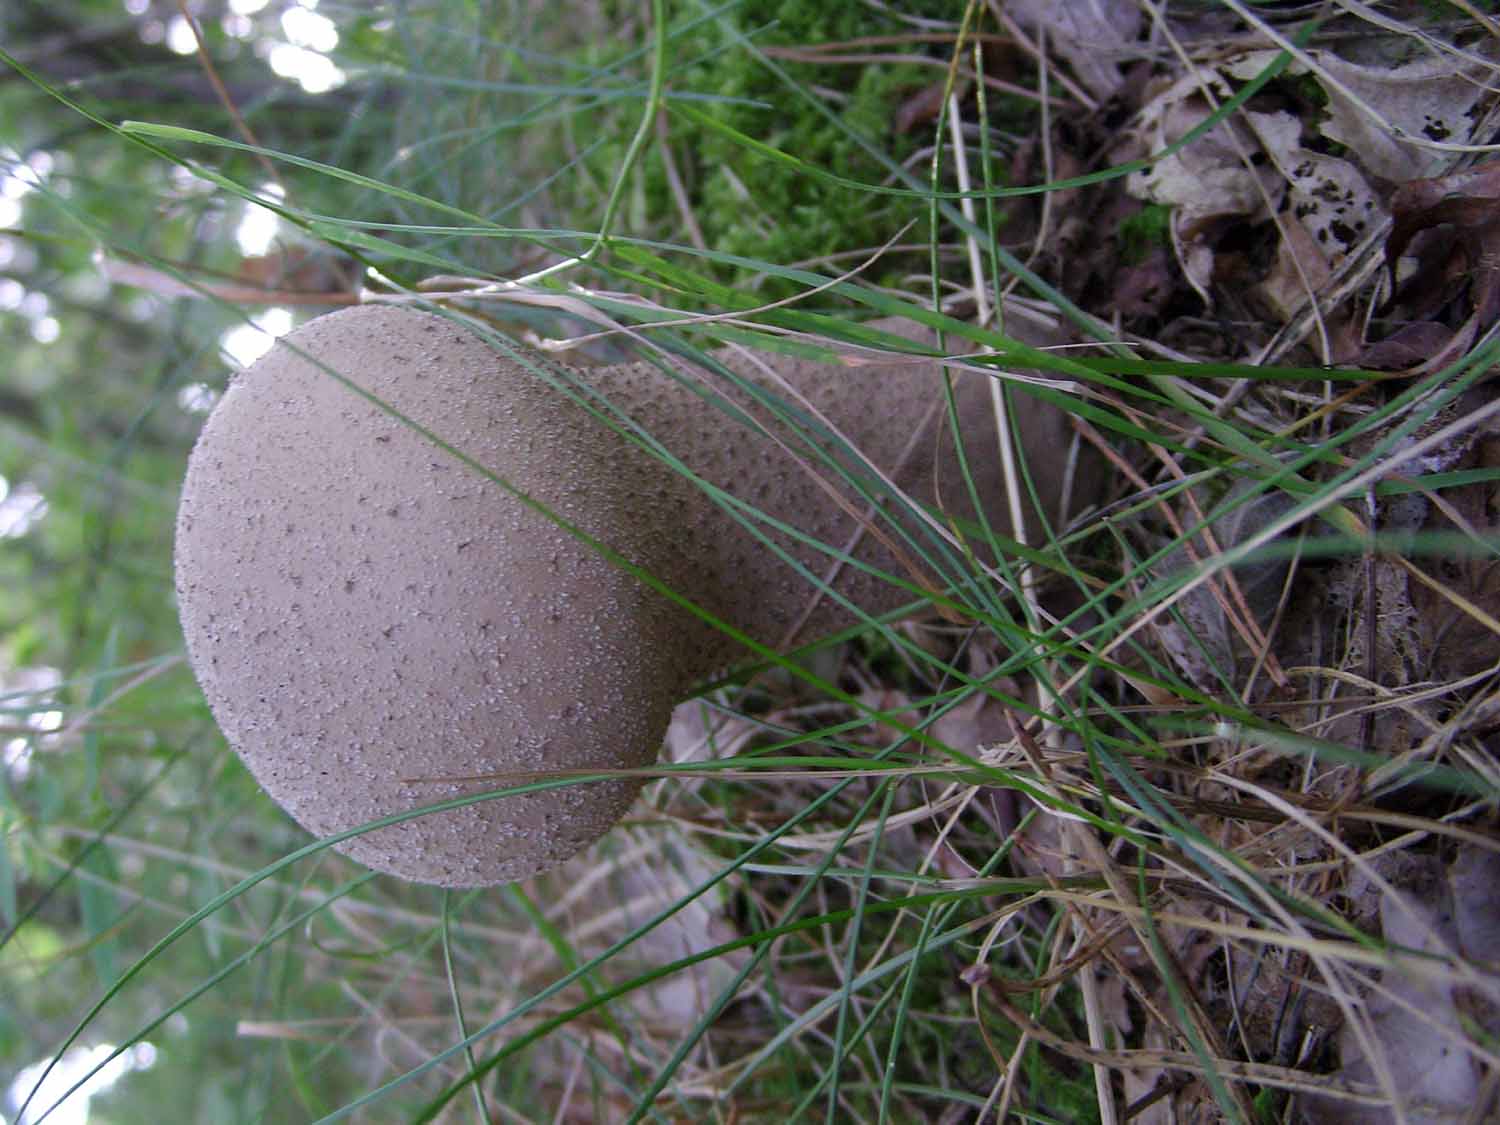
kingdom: Fungi
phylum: Basidiomycota
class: Agaricomycetes
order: Agaricales
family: Lycoperdaceae
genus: Lycoperdon
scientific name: Lycoperdon excipuliforme
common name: højstokket støvbold
